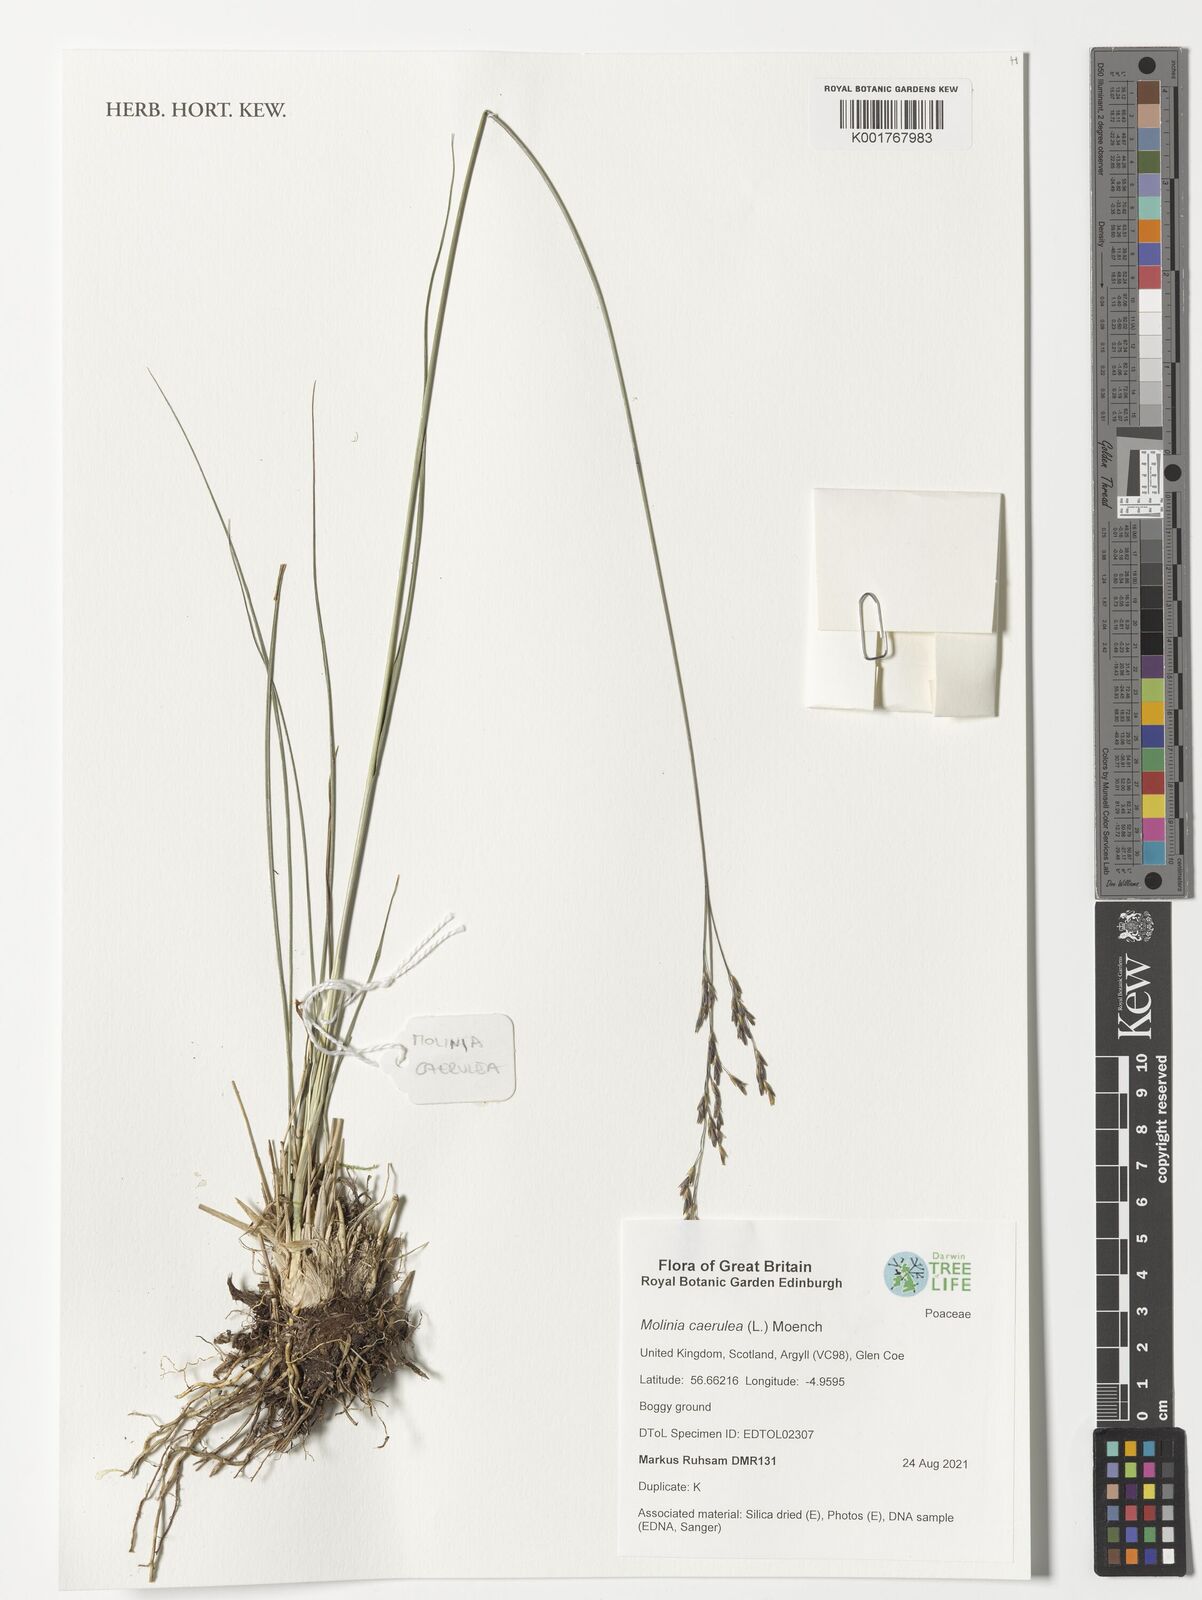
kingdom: Plantae
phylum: Tracheophyta
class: Liliopsida
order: Poales
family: Poaceae
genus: Molinia
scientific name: Molinia caerulea
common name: Purple moor-grass
